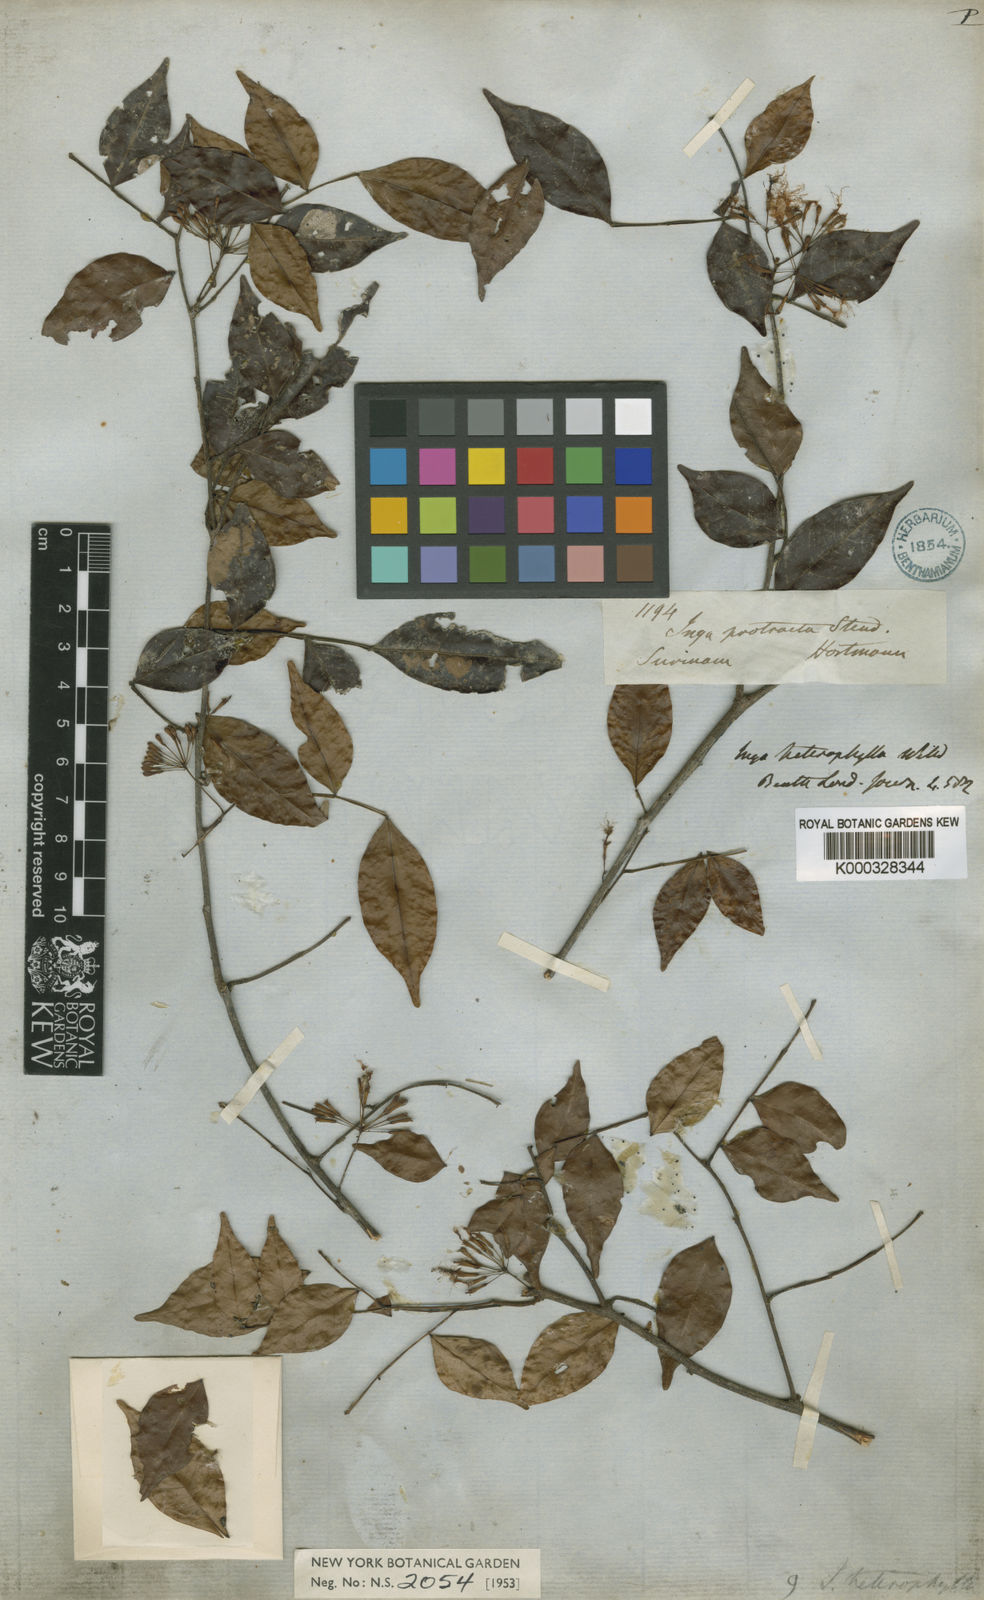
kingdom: Plantae
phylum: Tracheophyta
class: Magnoliopsida
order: Fabales
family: Fabaceae
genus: Inga
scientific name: Inga heterophylla
